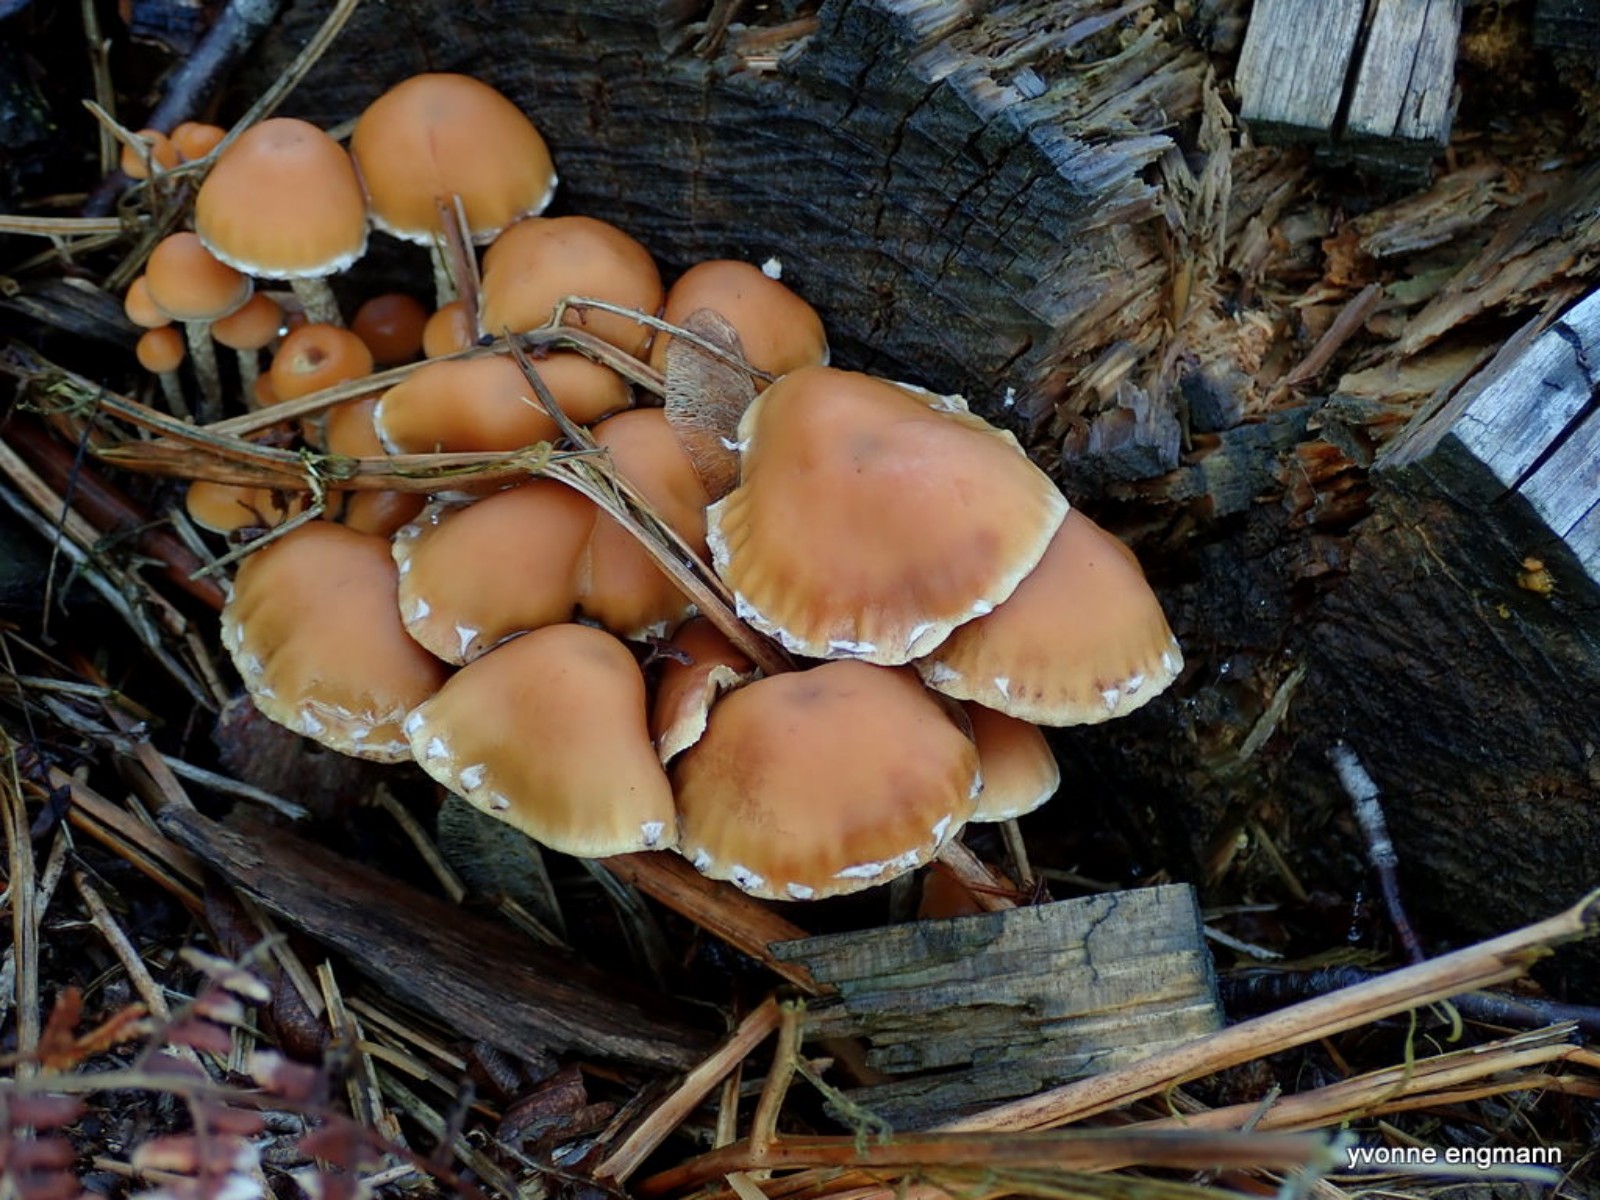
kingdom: Fungi
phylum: Basidiomycota
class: Agaricomycetes
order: Agaricales
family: Strophariaceae
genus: Hypholoma
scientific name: Hypholoma marginatum
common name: enlig svovlhat
